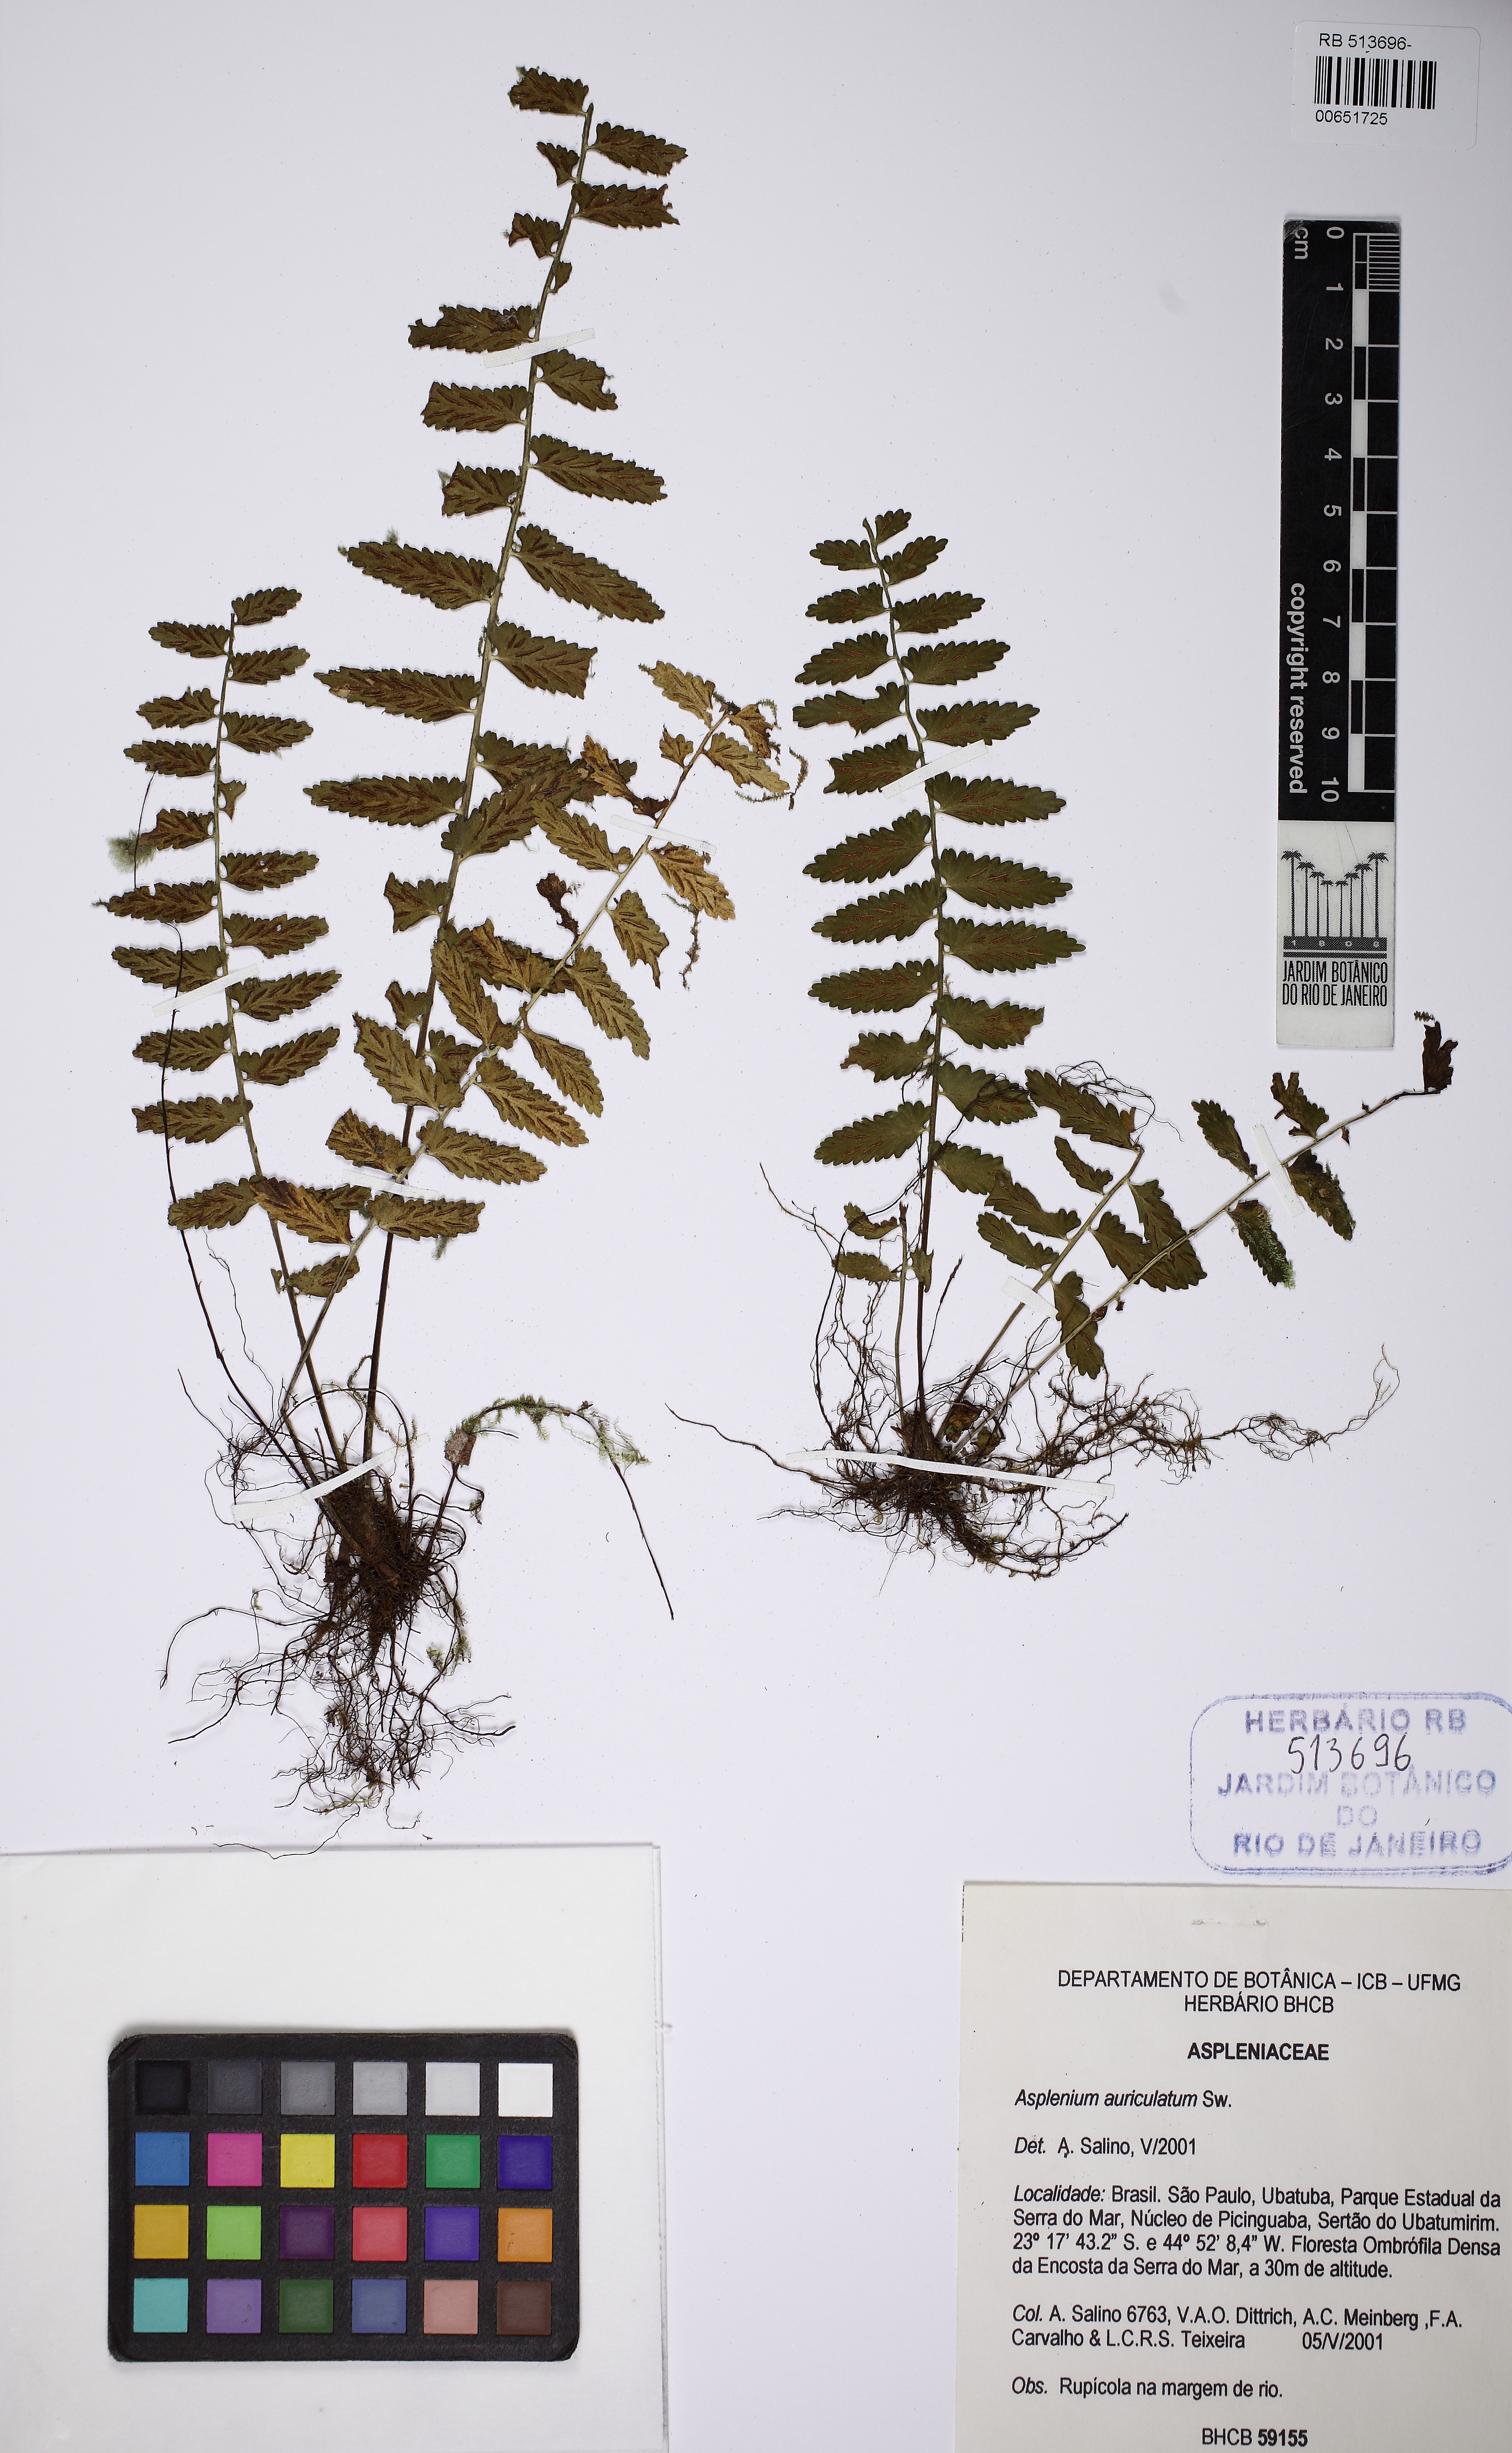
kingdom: Plantae
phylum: Tracheophyta
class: Polypodiopsida
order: Polypodiales
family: Aspleniaceae
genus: Asplenium
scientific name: Asplenium auriculatum
